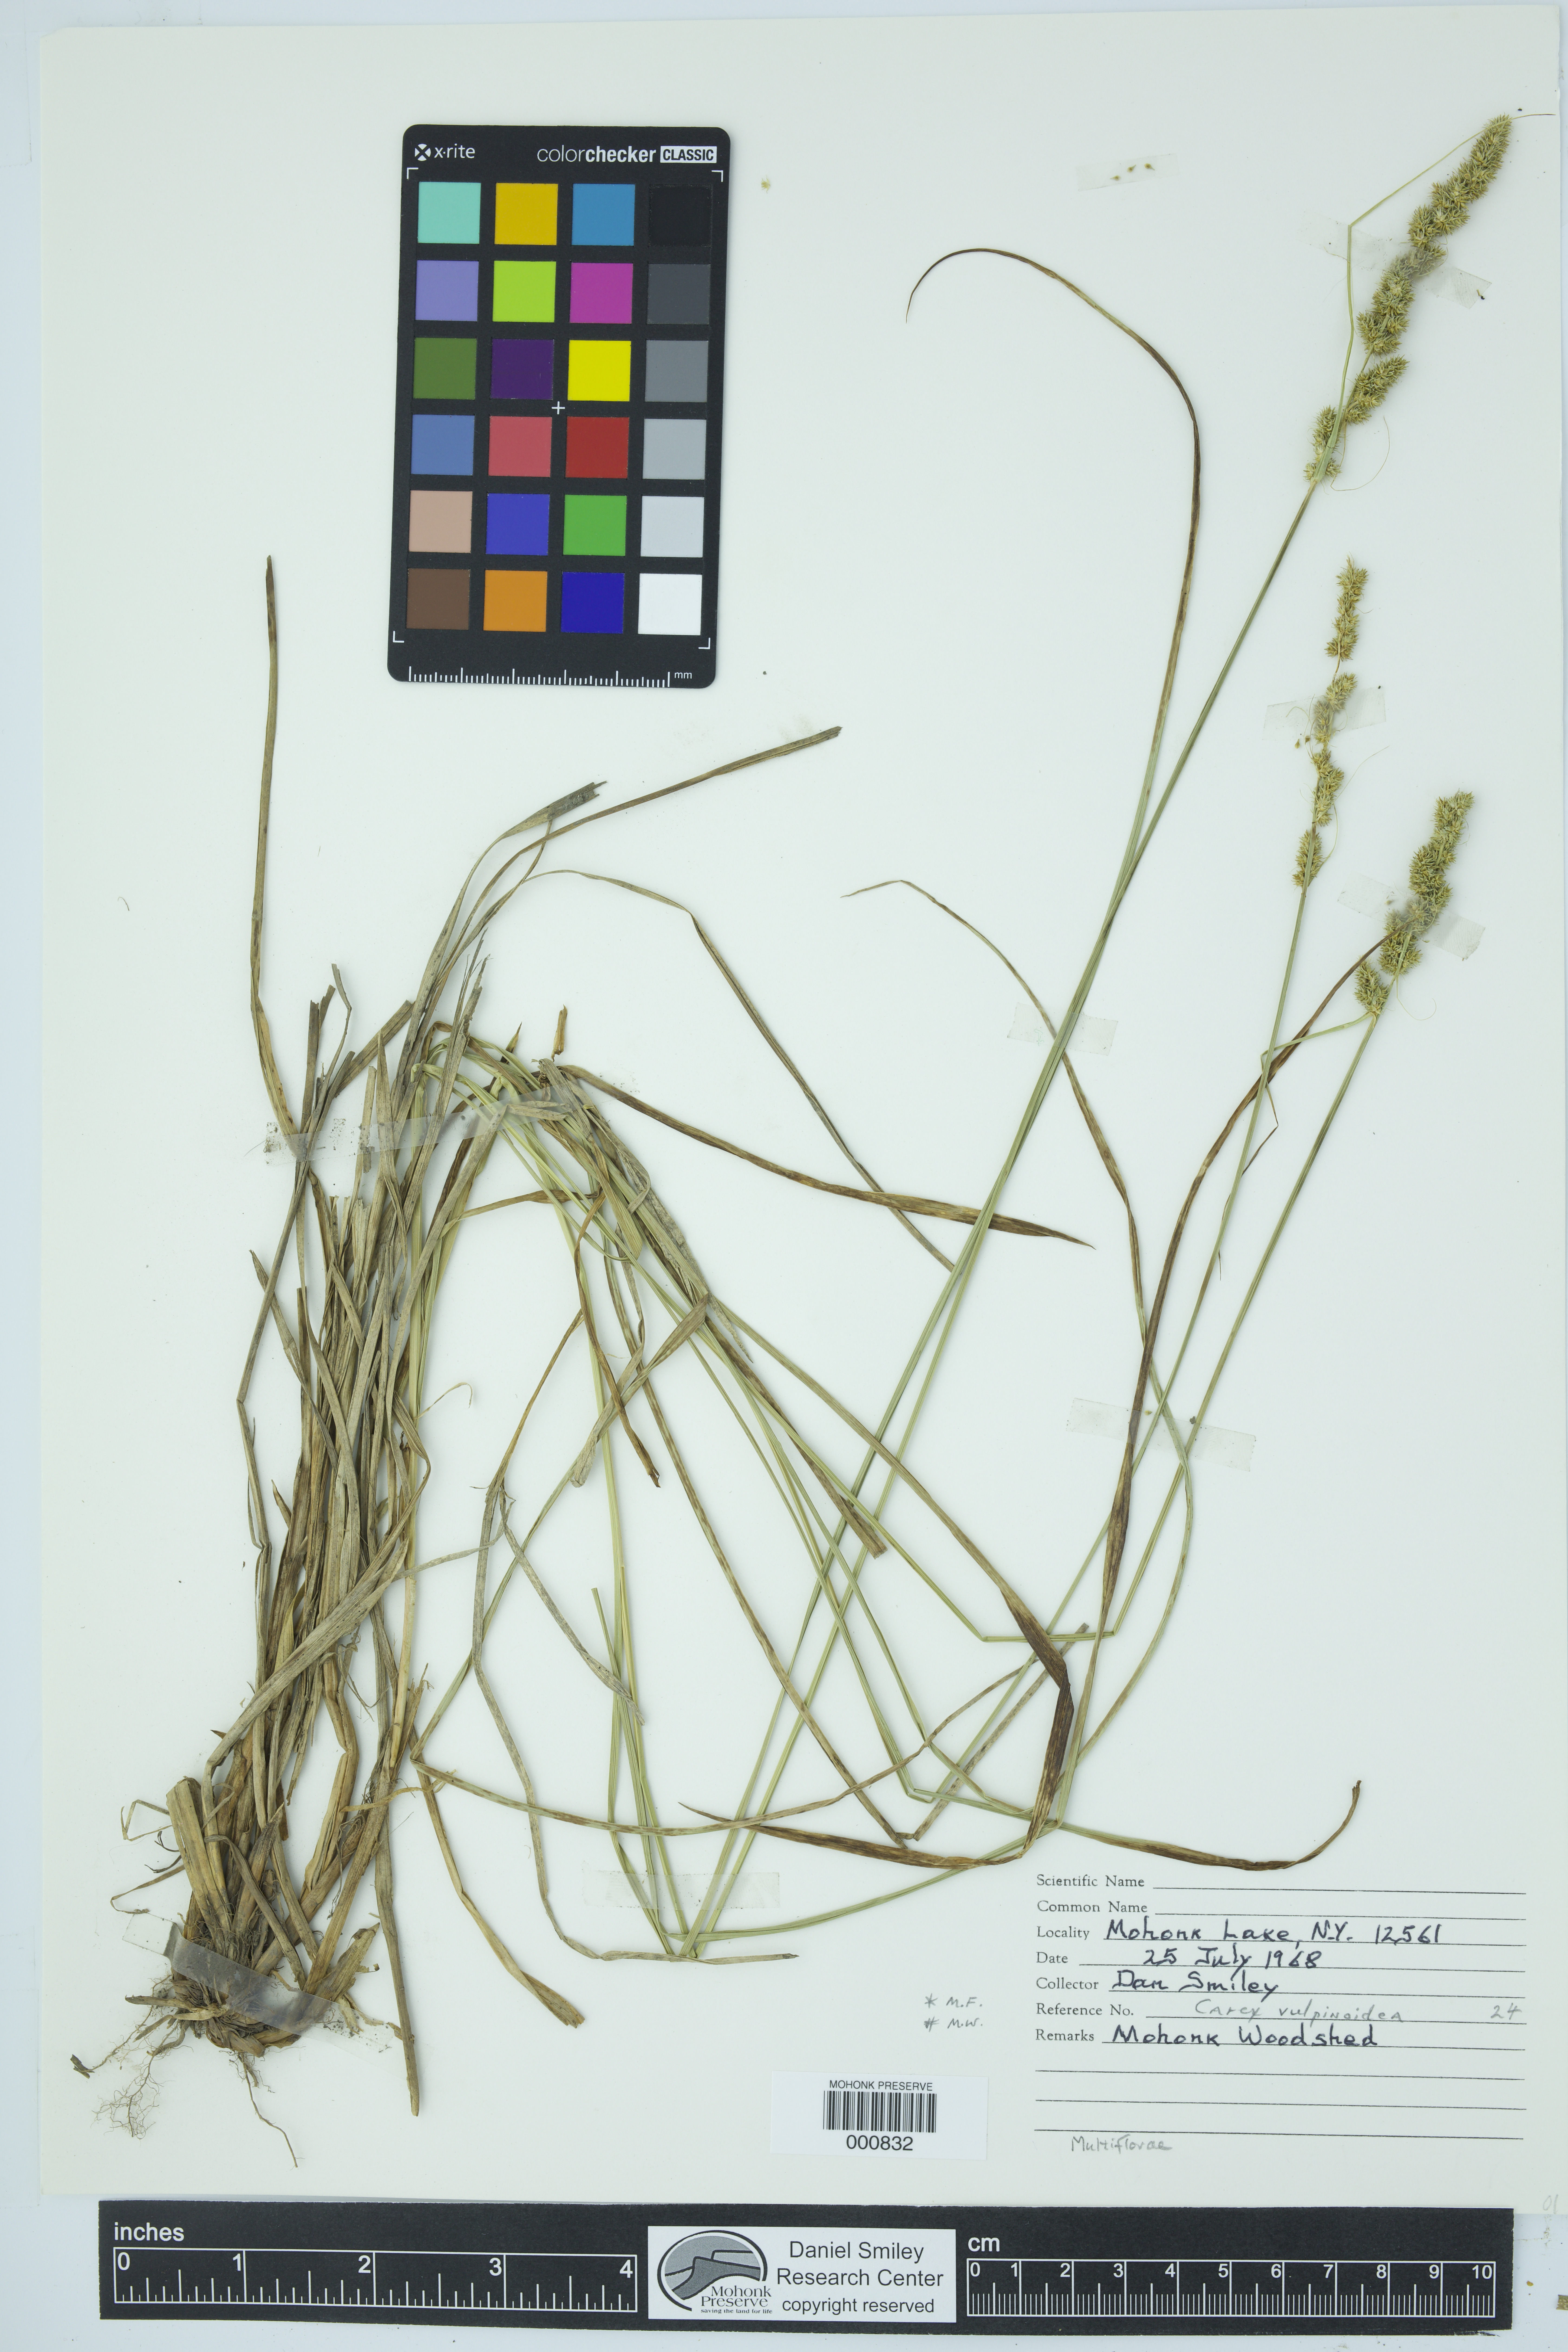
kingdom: Plantae
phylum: Tracheophyta
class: Liliopsida
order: Poales
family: Cyperaceae
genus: Carex
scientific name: Carex vulpinoidea
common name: American fox-sedge
